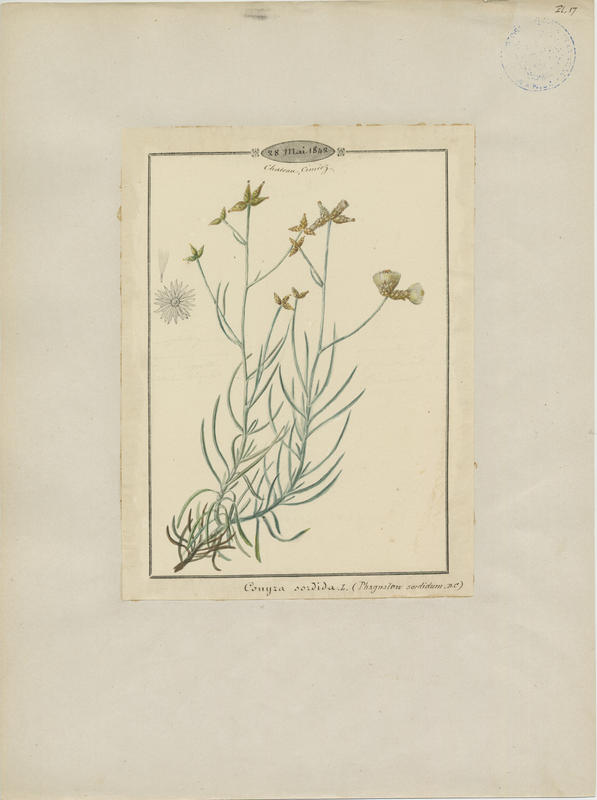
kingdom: Plantae
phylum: Tracheophyta
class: Magnoliopsida
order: Asterales
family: Asteraceae
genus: Phagnalon
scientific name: Phagnalon sordidum
